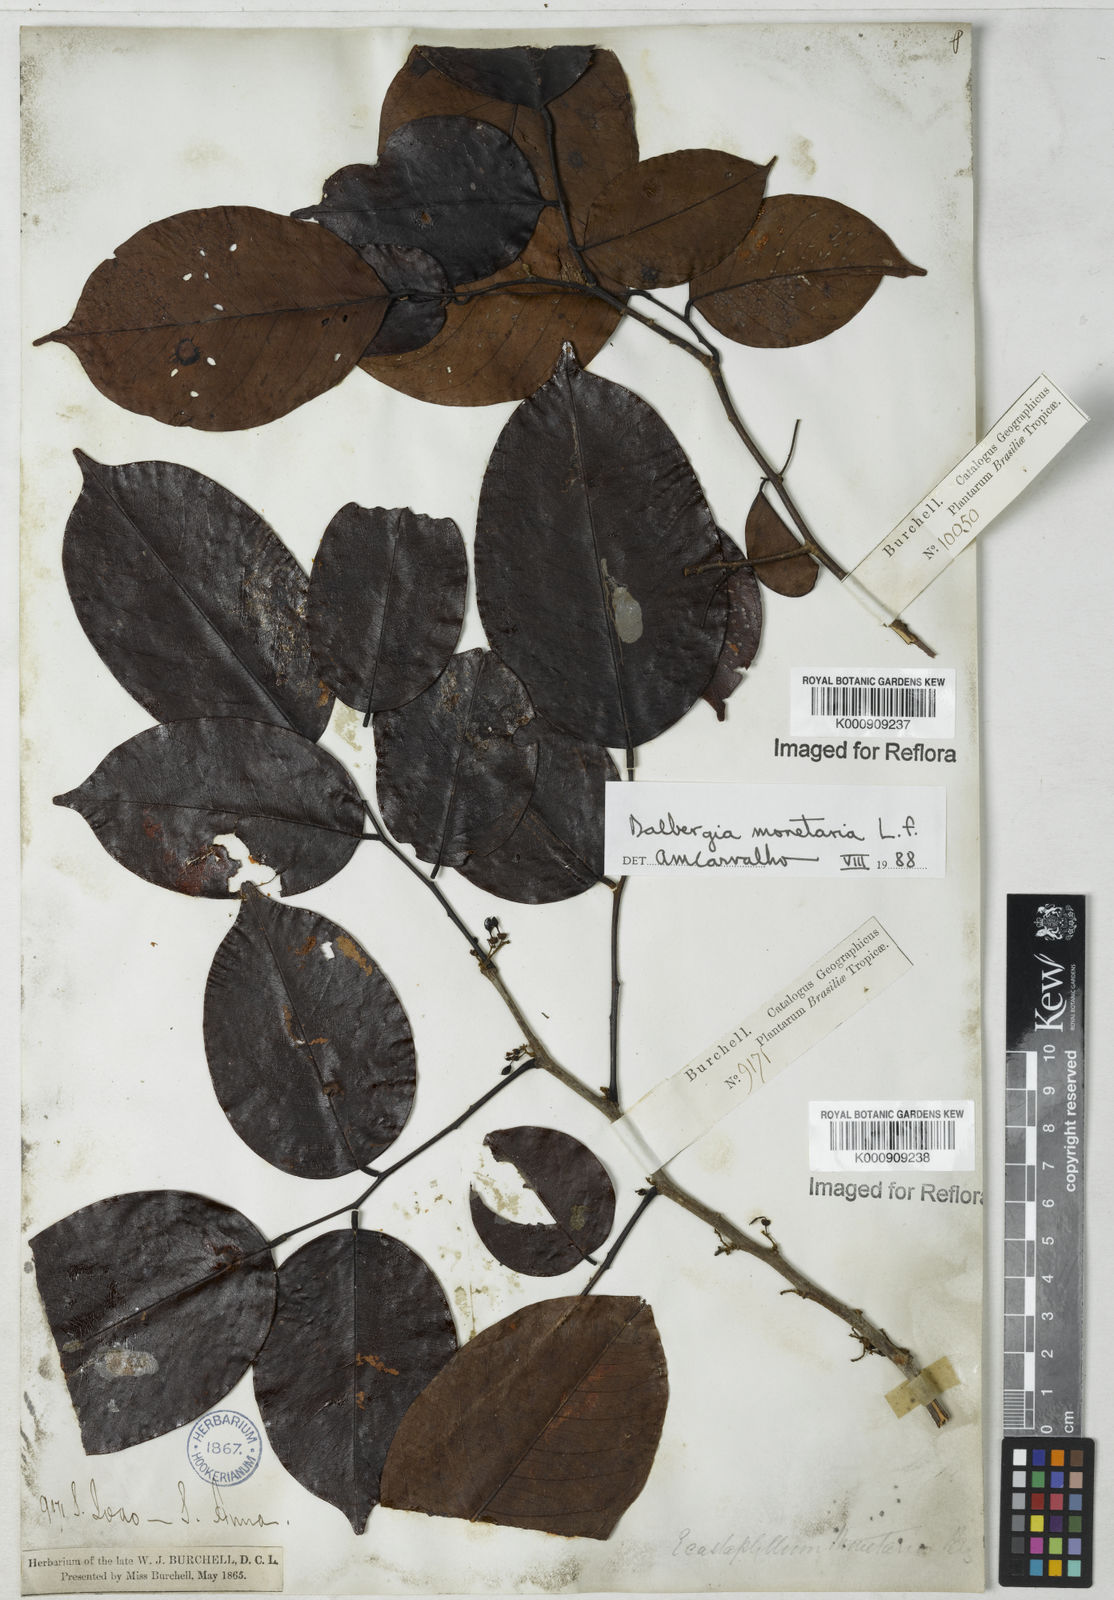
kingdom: Plantae
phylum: Tracheophyta
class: Magnoliopsida
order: Fabales
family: Fabaceae
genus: Dalbergia
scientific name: Dalbergia ovalis
